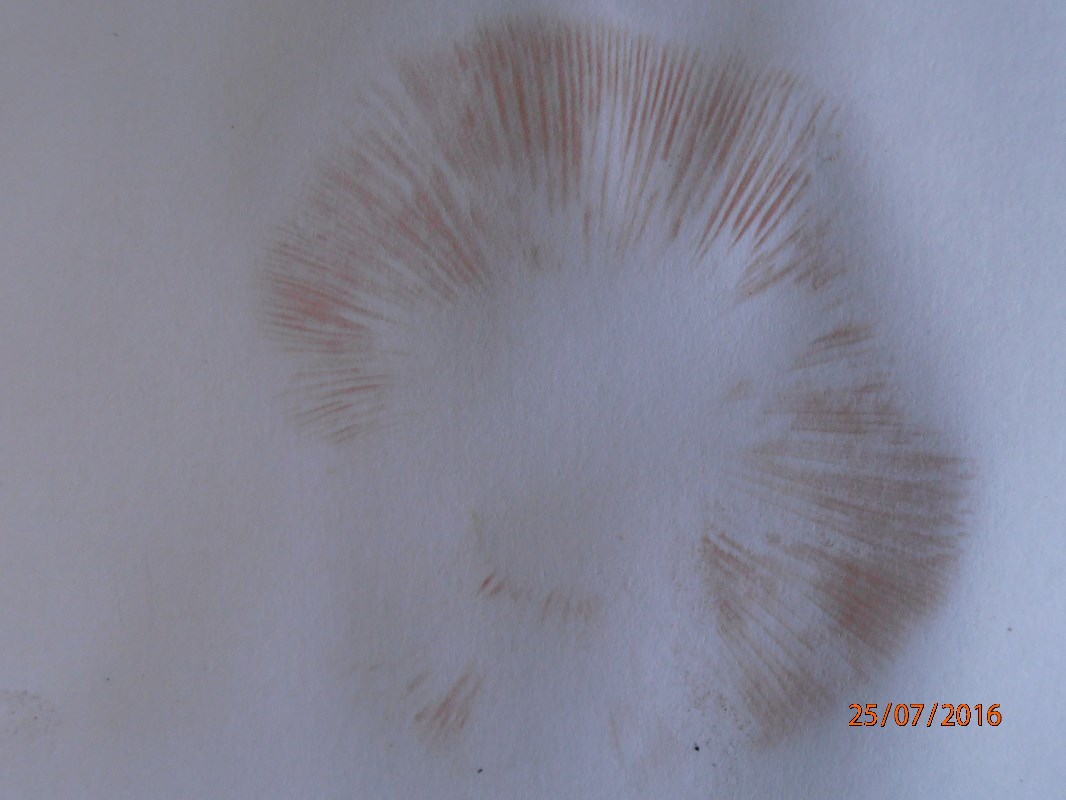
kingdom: Fungi
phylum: Basidiomycota
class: Agaricomycetes
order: Agaricales
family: Entolomataceae
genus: Entoloma
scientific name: Entoloma sinuatum
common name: giftig rødblad
